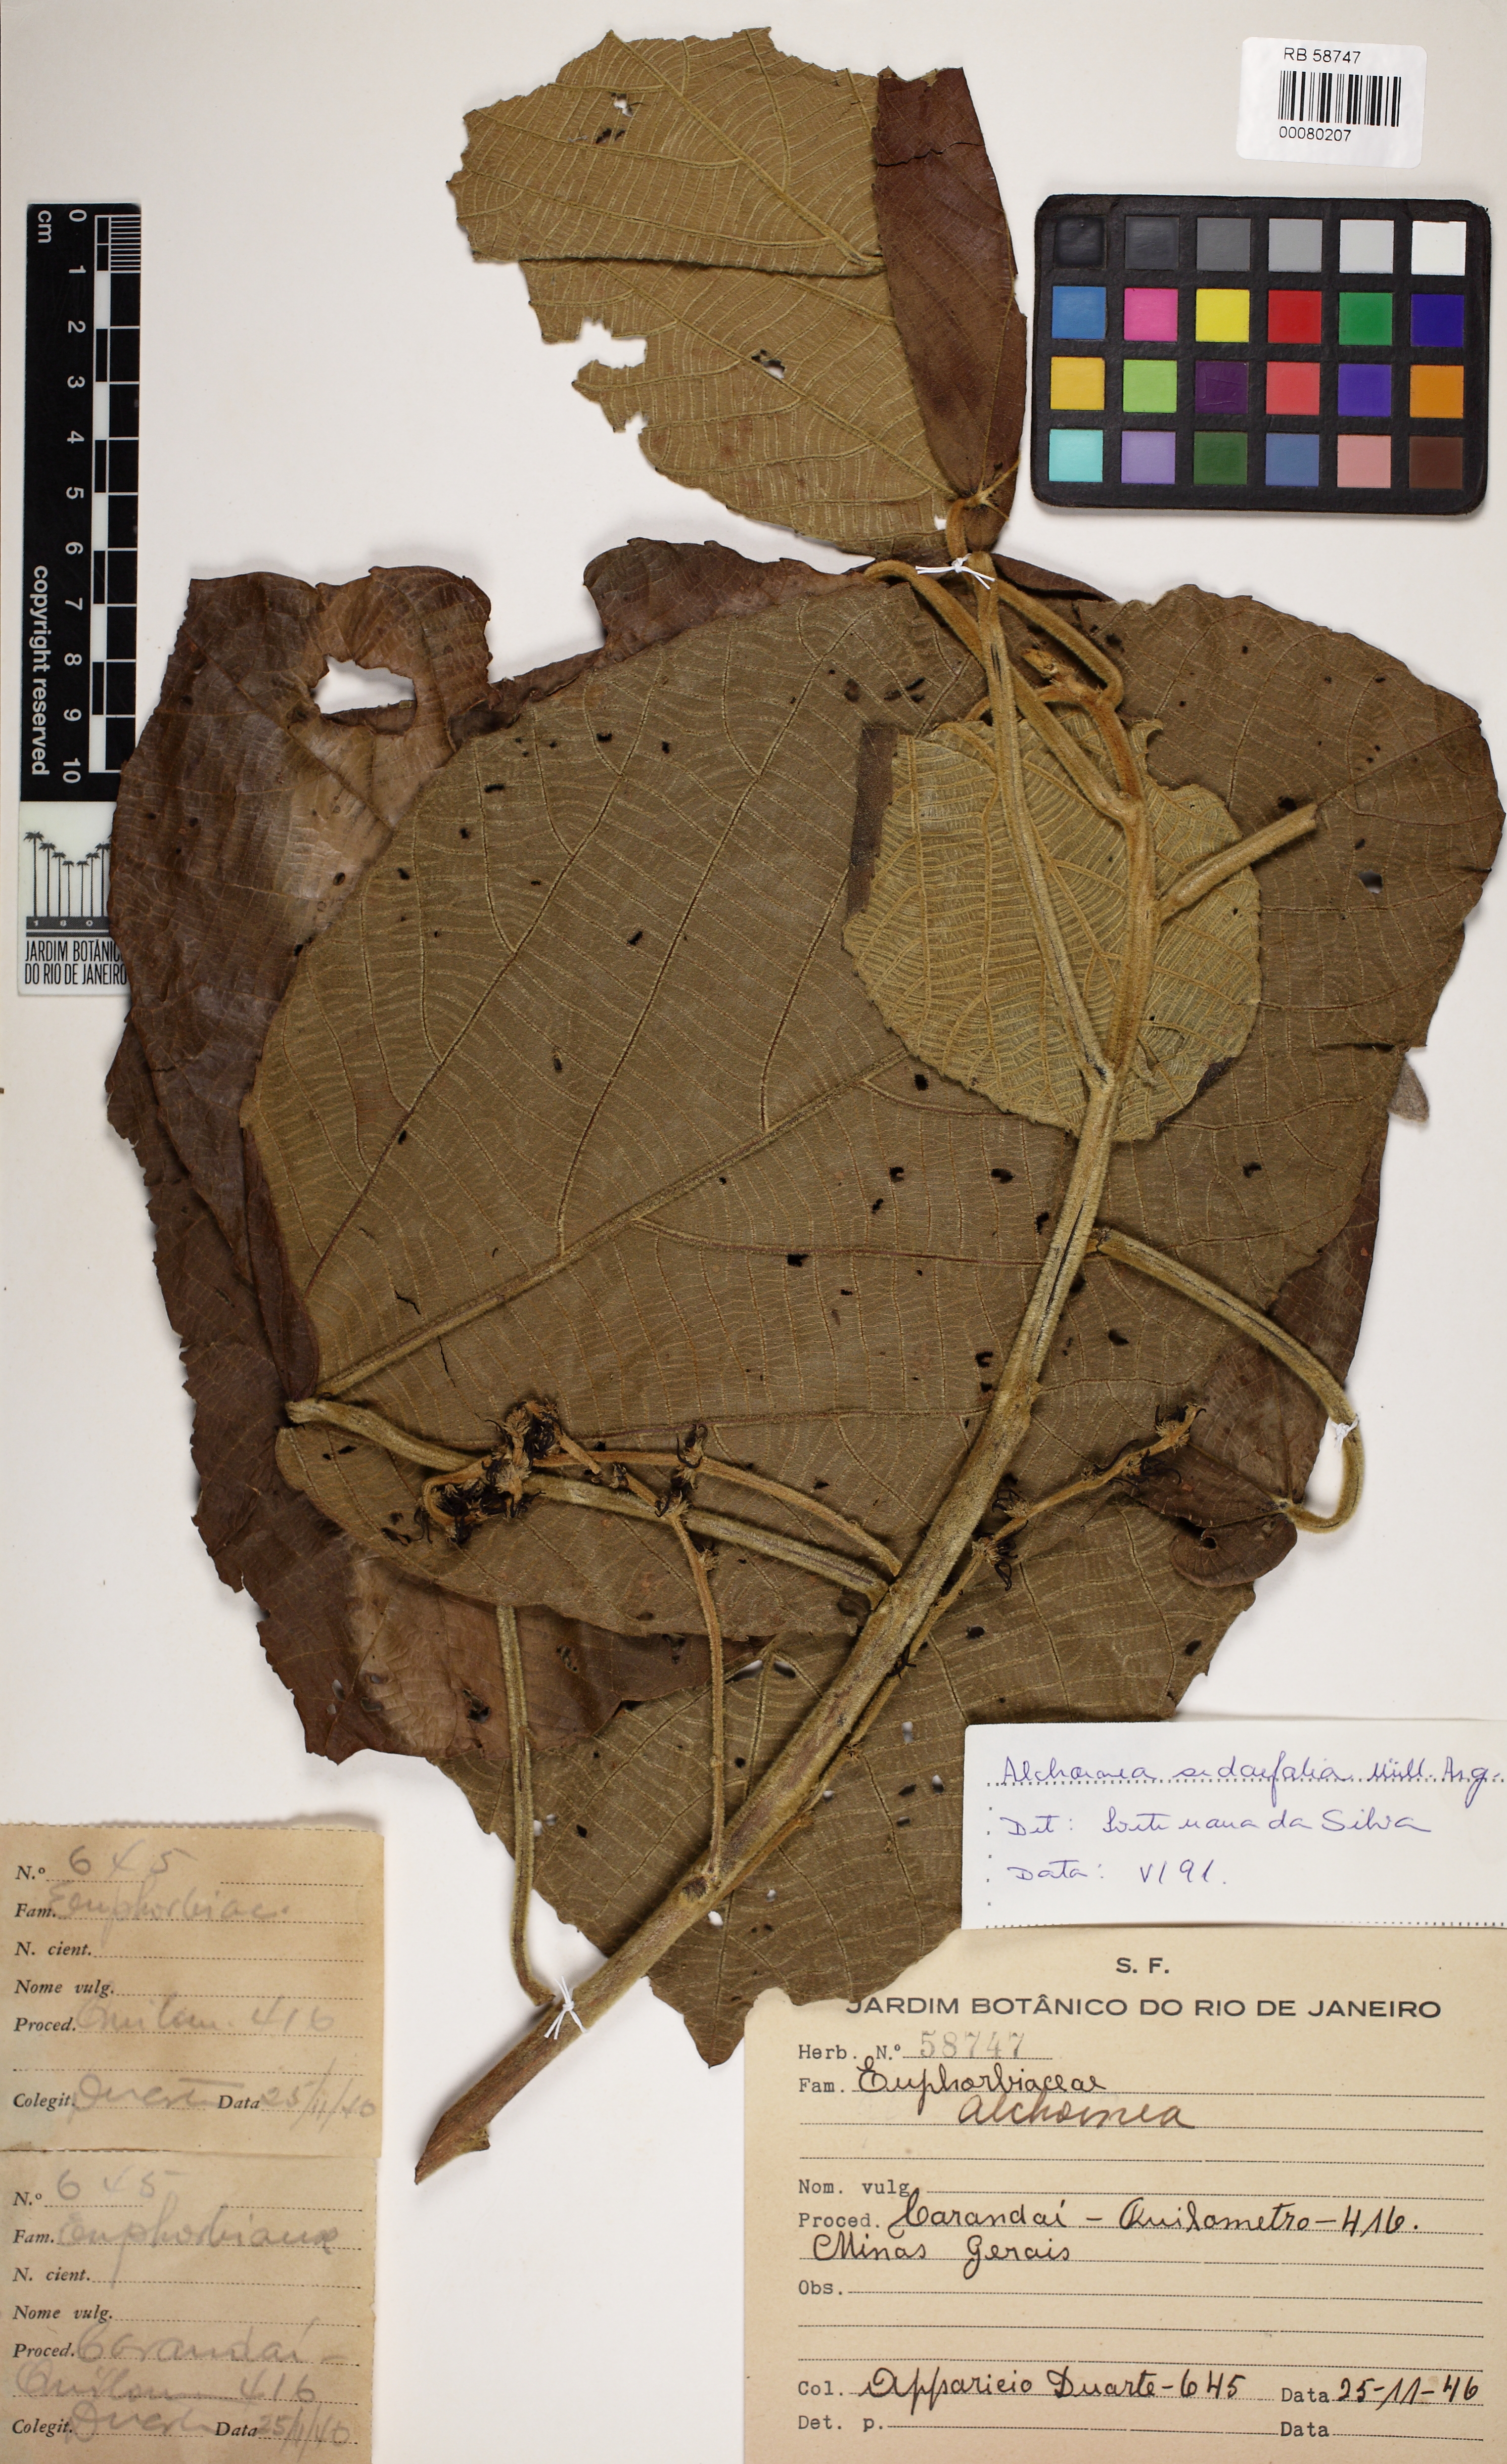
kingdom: Plantae
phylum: Tracheophyta
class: Magnoliopsida
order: Malpighiales
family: Euphorbiaceae
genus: Alchornea
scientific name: Alchornea sidifolia
